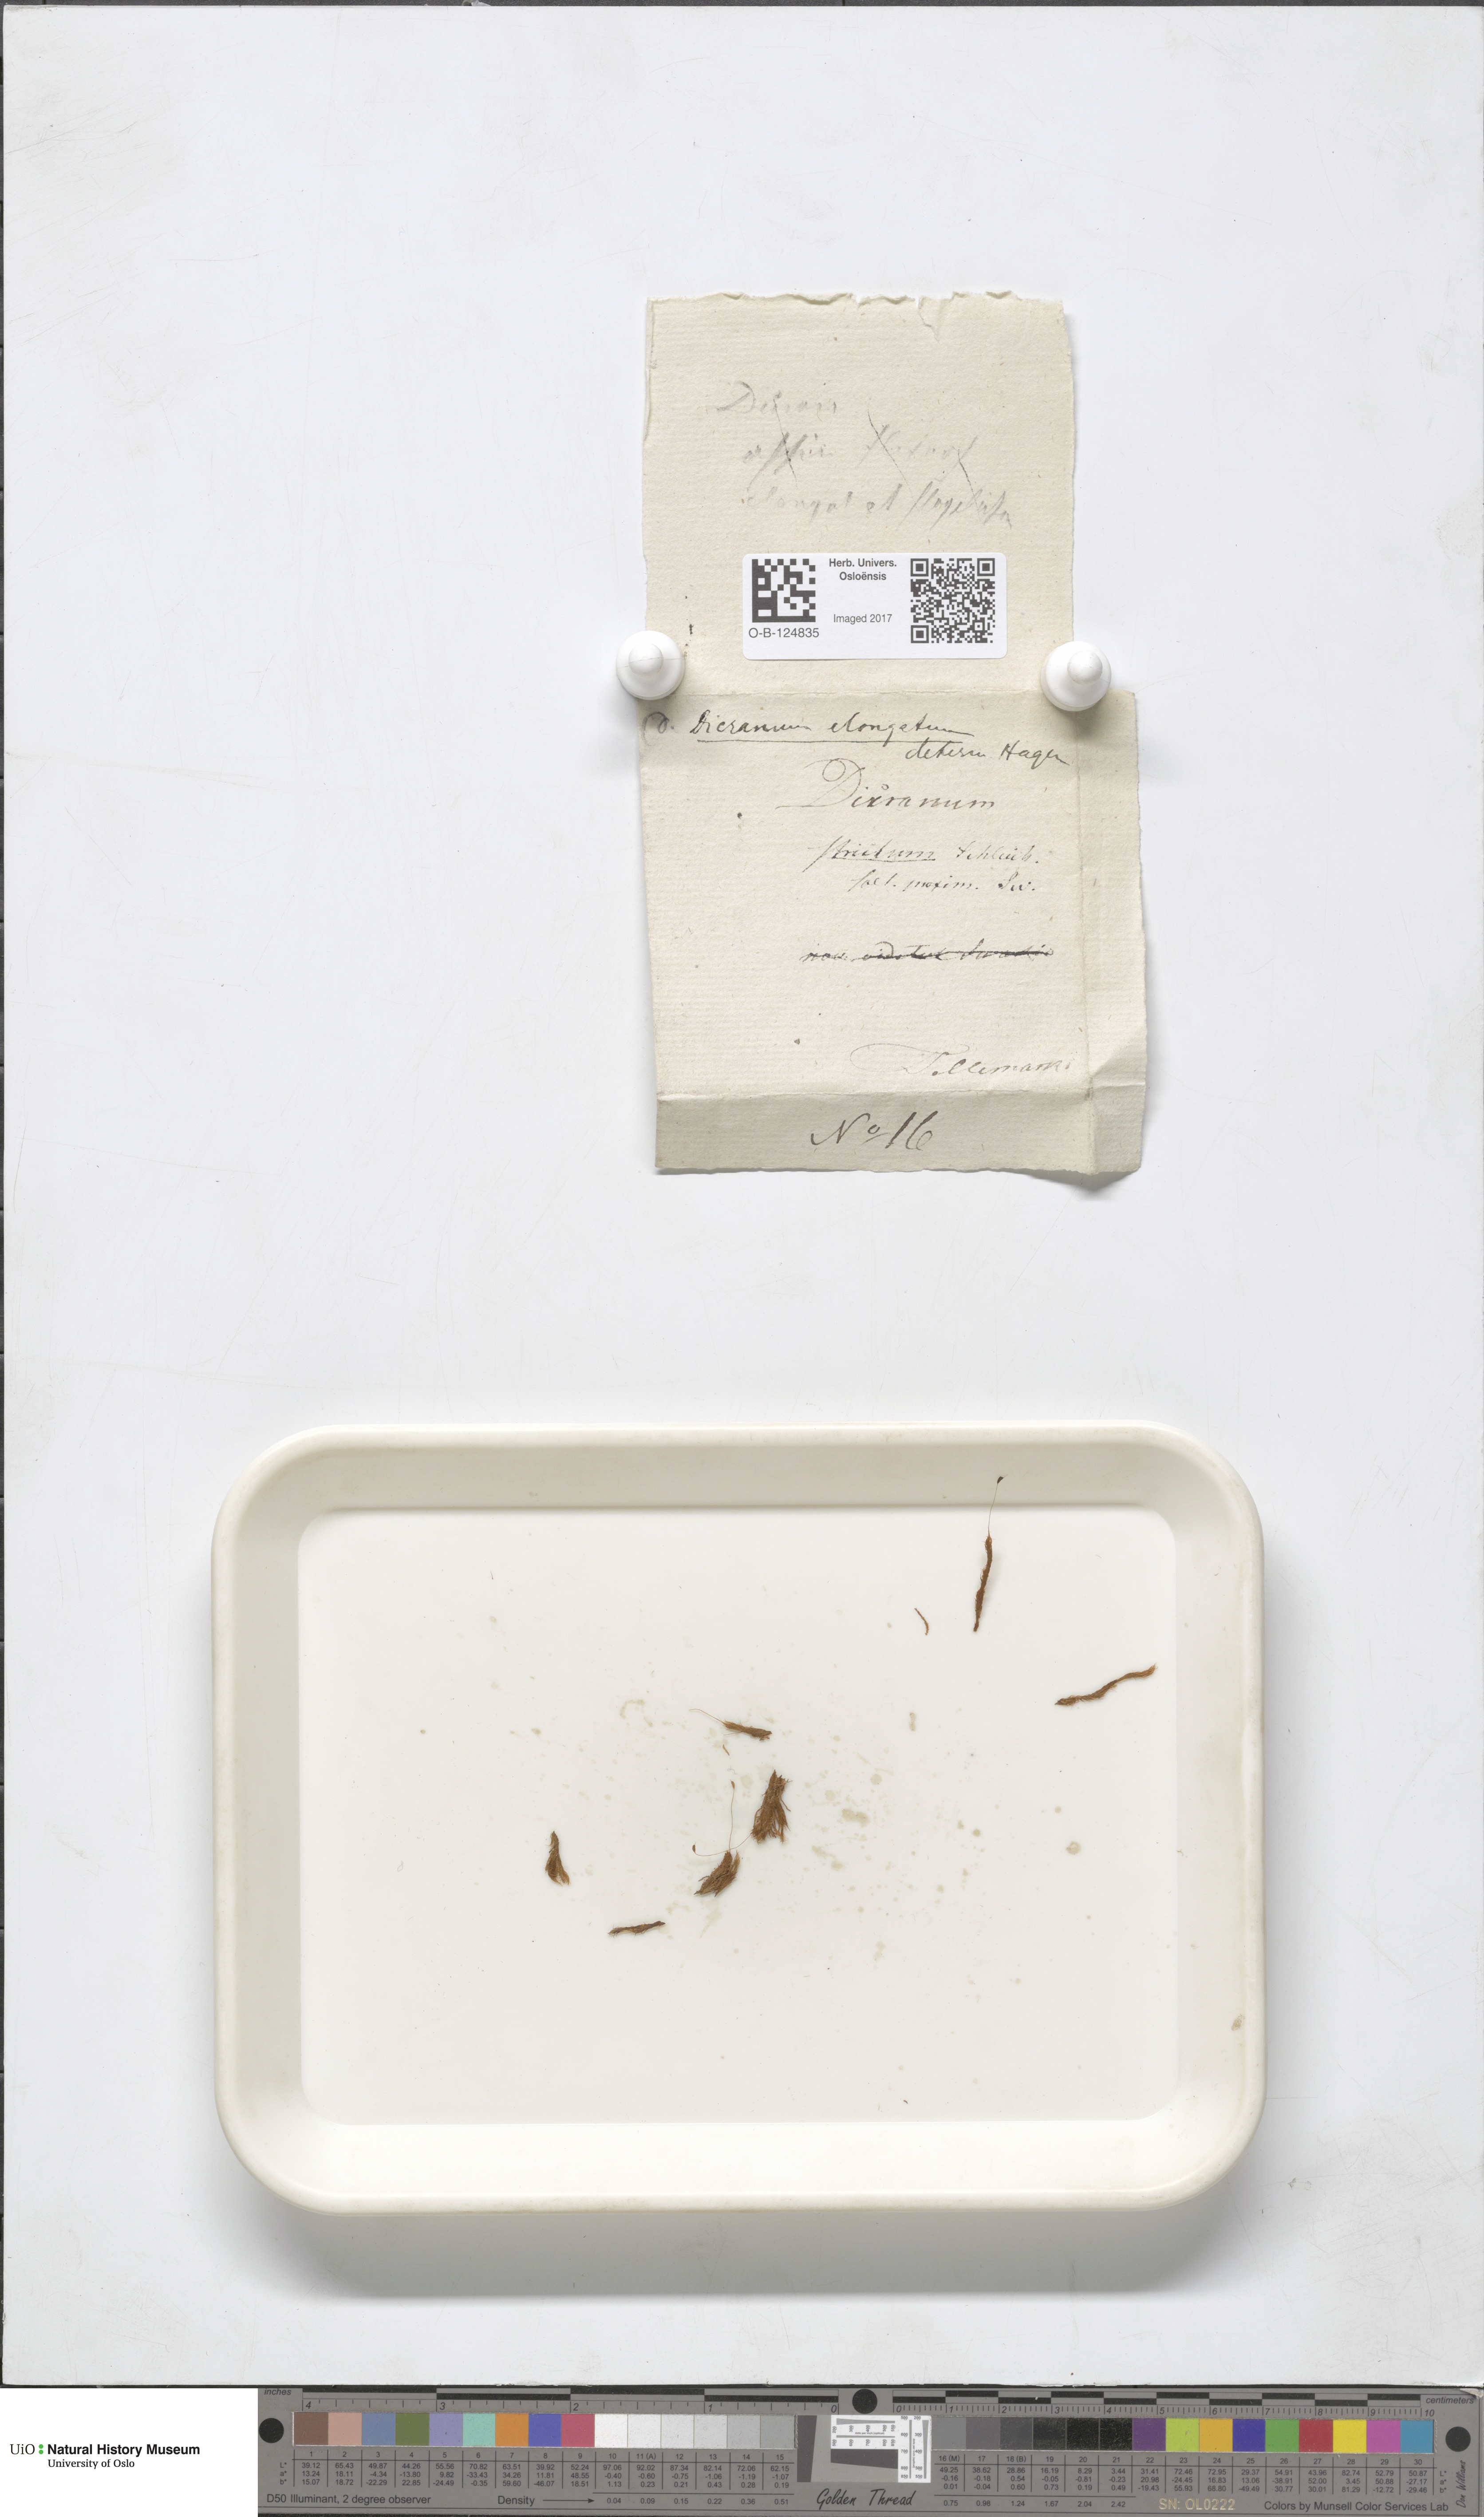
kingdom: Plantae
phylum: Bryophyta
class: Bryopsida
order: Dicranales
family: Dicranaceae
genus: Dicranum
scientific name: Dicranum elongatum
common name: Long-forked broom moss
